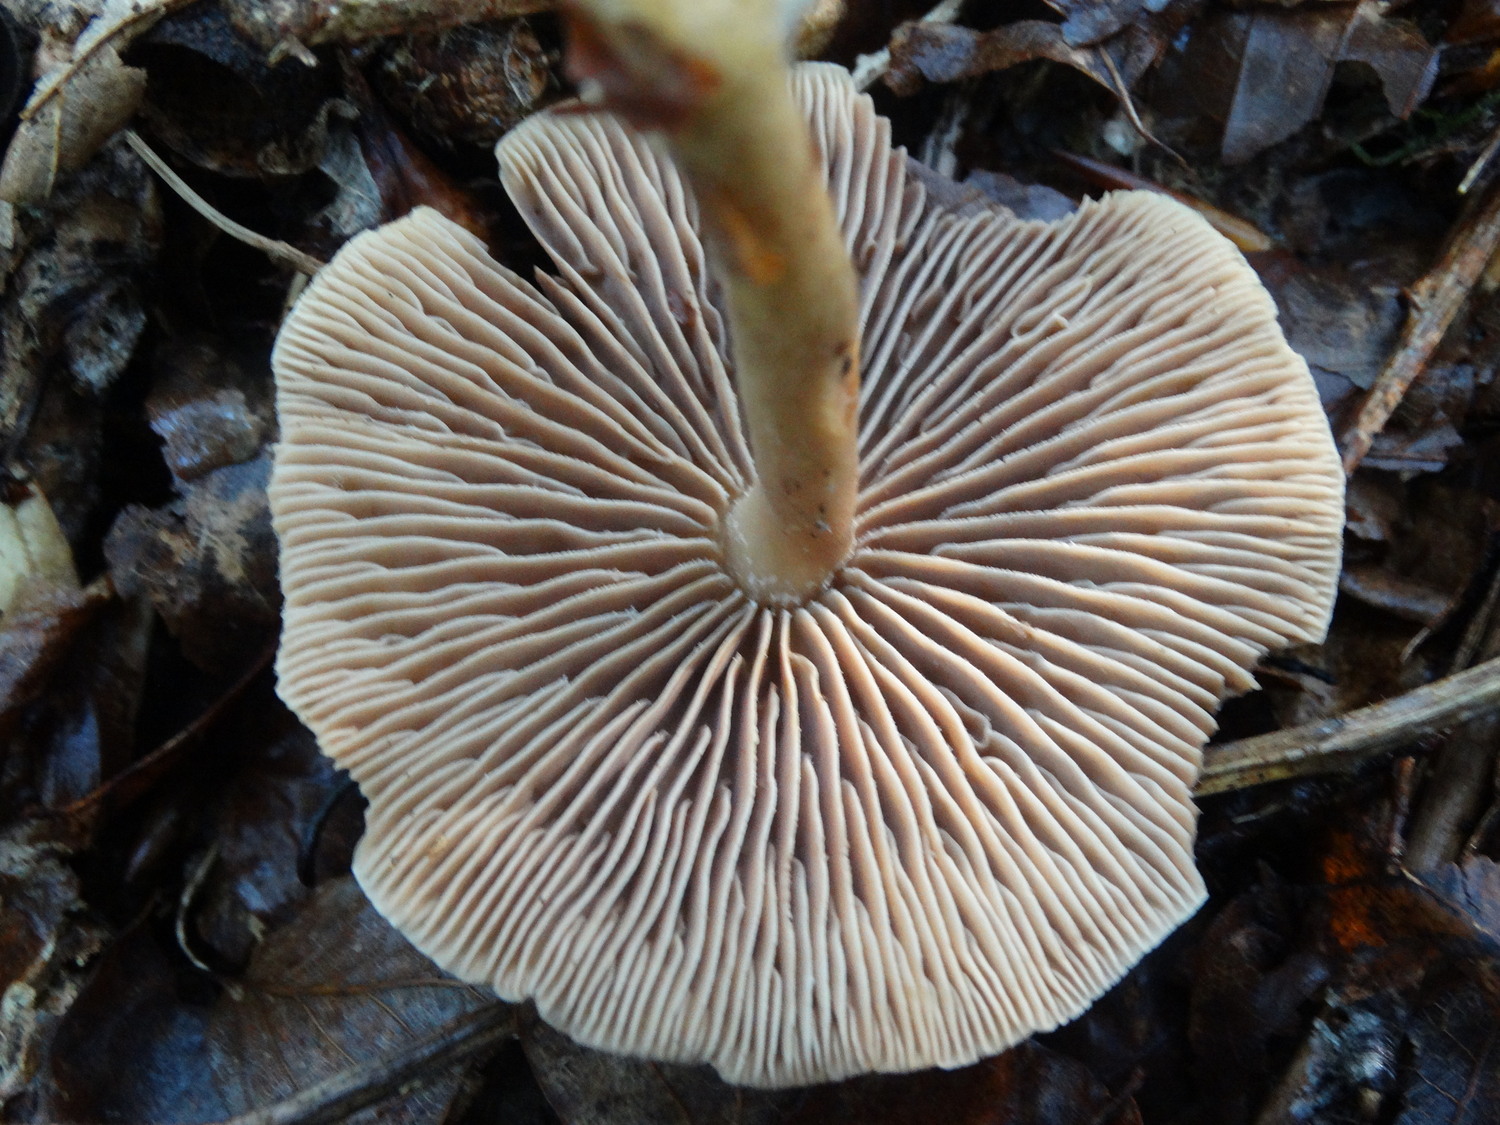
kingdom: Fungi
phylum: Basidiomycota
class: Agaricomycetes
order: Agaricales
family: Omphalotaceae
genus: Collybiopsis
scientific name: Collybiopsis peronata
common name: bestøvlet fladhat
